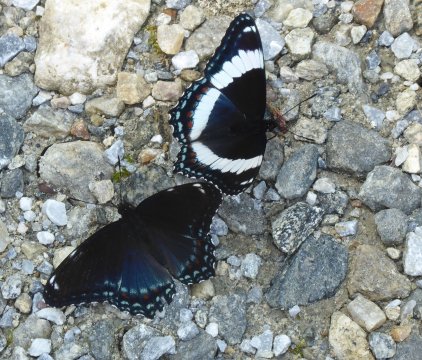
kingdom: Animalia
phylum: Arthropoda
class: Insecta
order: Lepidoptera
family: Nymphalidae
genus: Limenitis
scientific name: Limenitis arthemis
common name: Red-spotted Admiral
